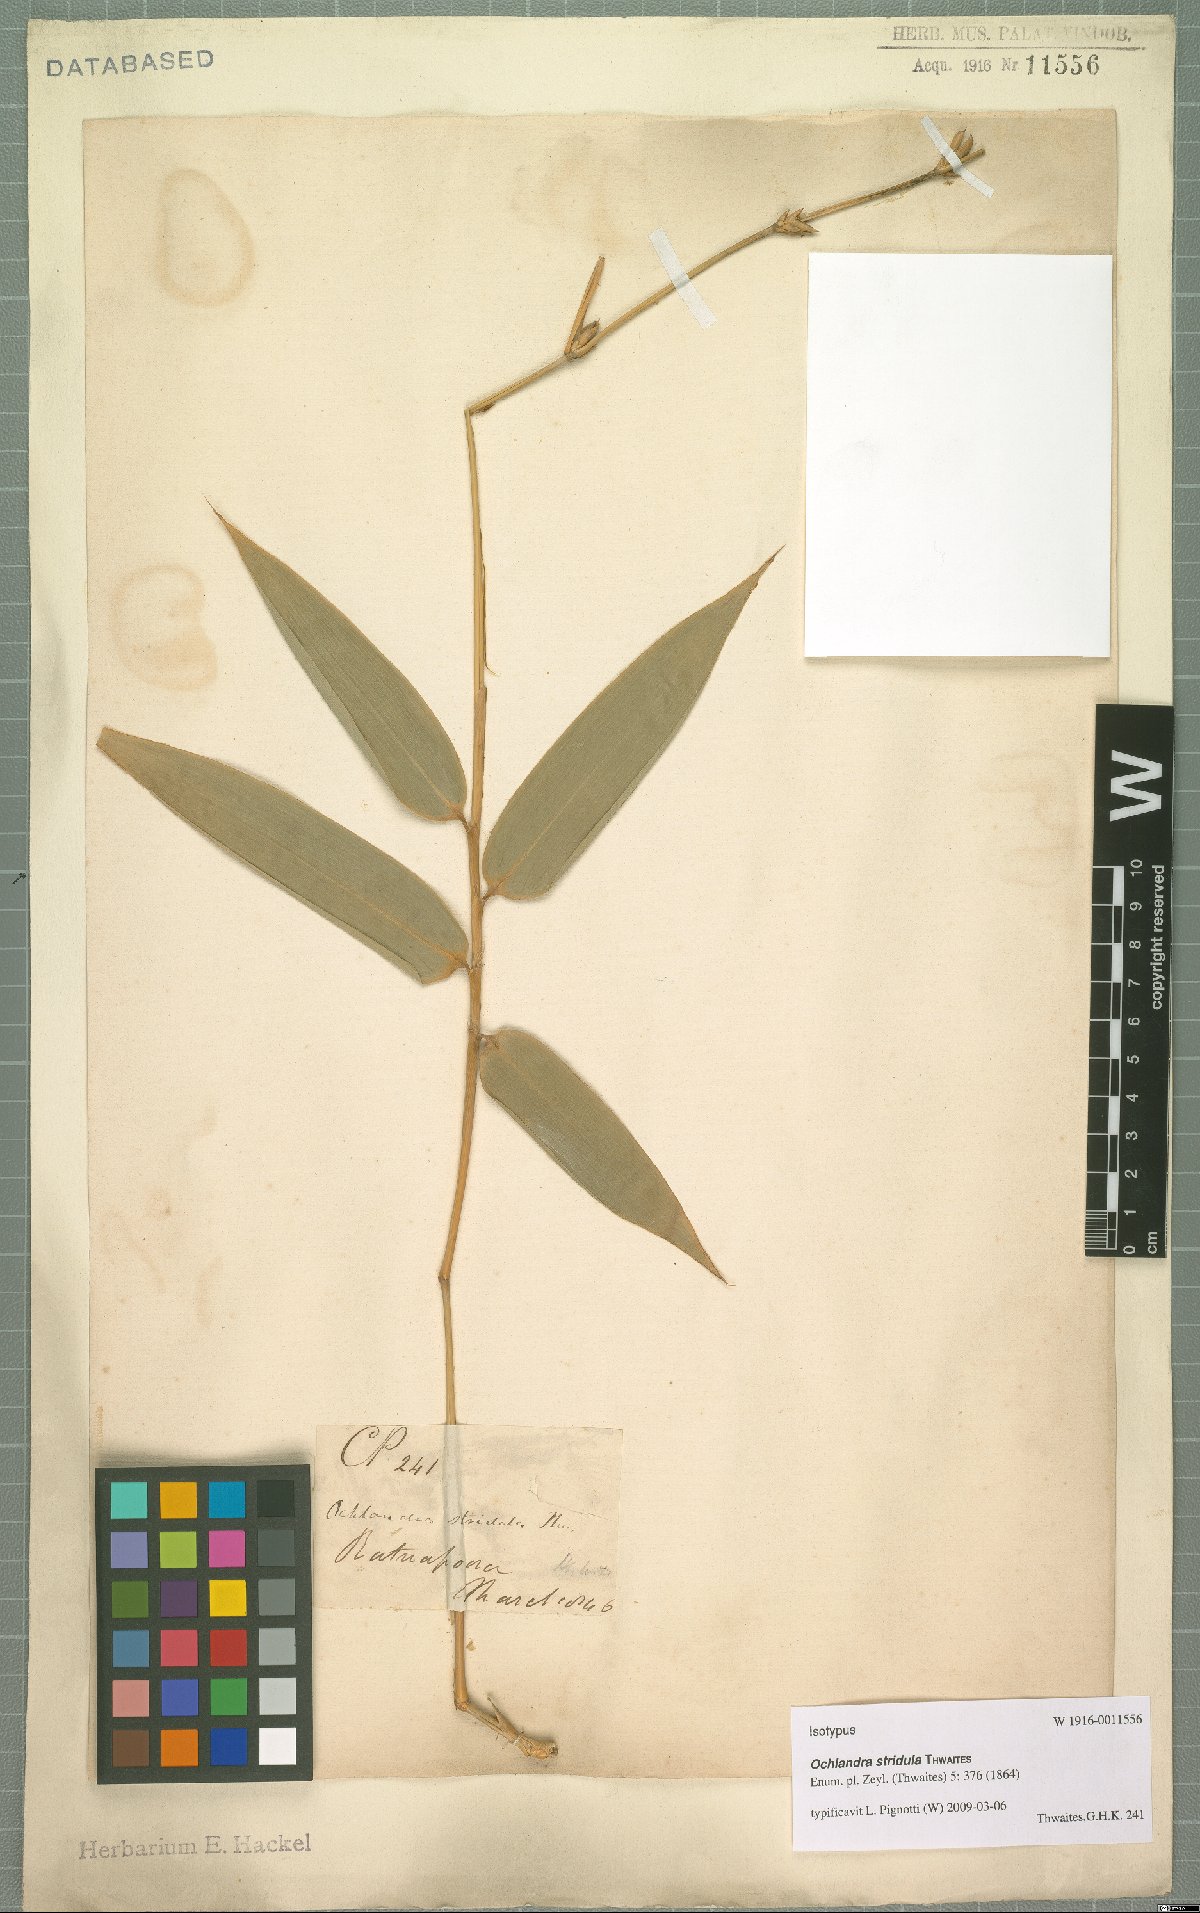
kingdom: Plantae
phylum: Tracheophyta
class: Liliopsida
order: Poales
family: Poaceae
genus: Ochlandra
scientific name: Ochlandra stridula
